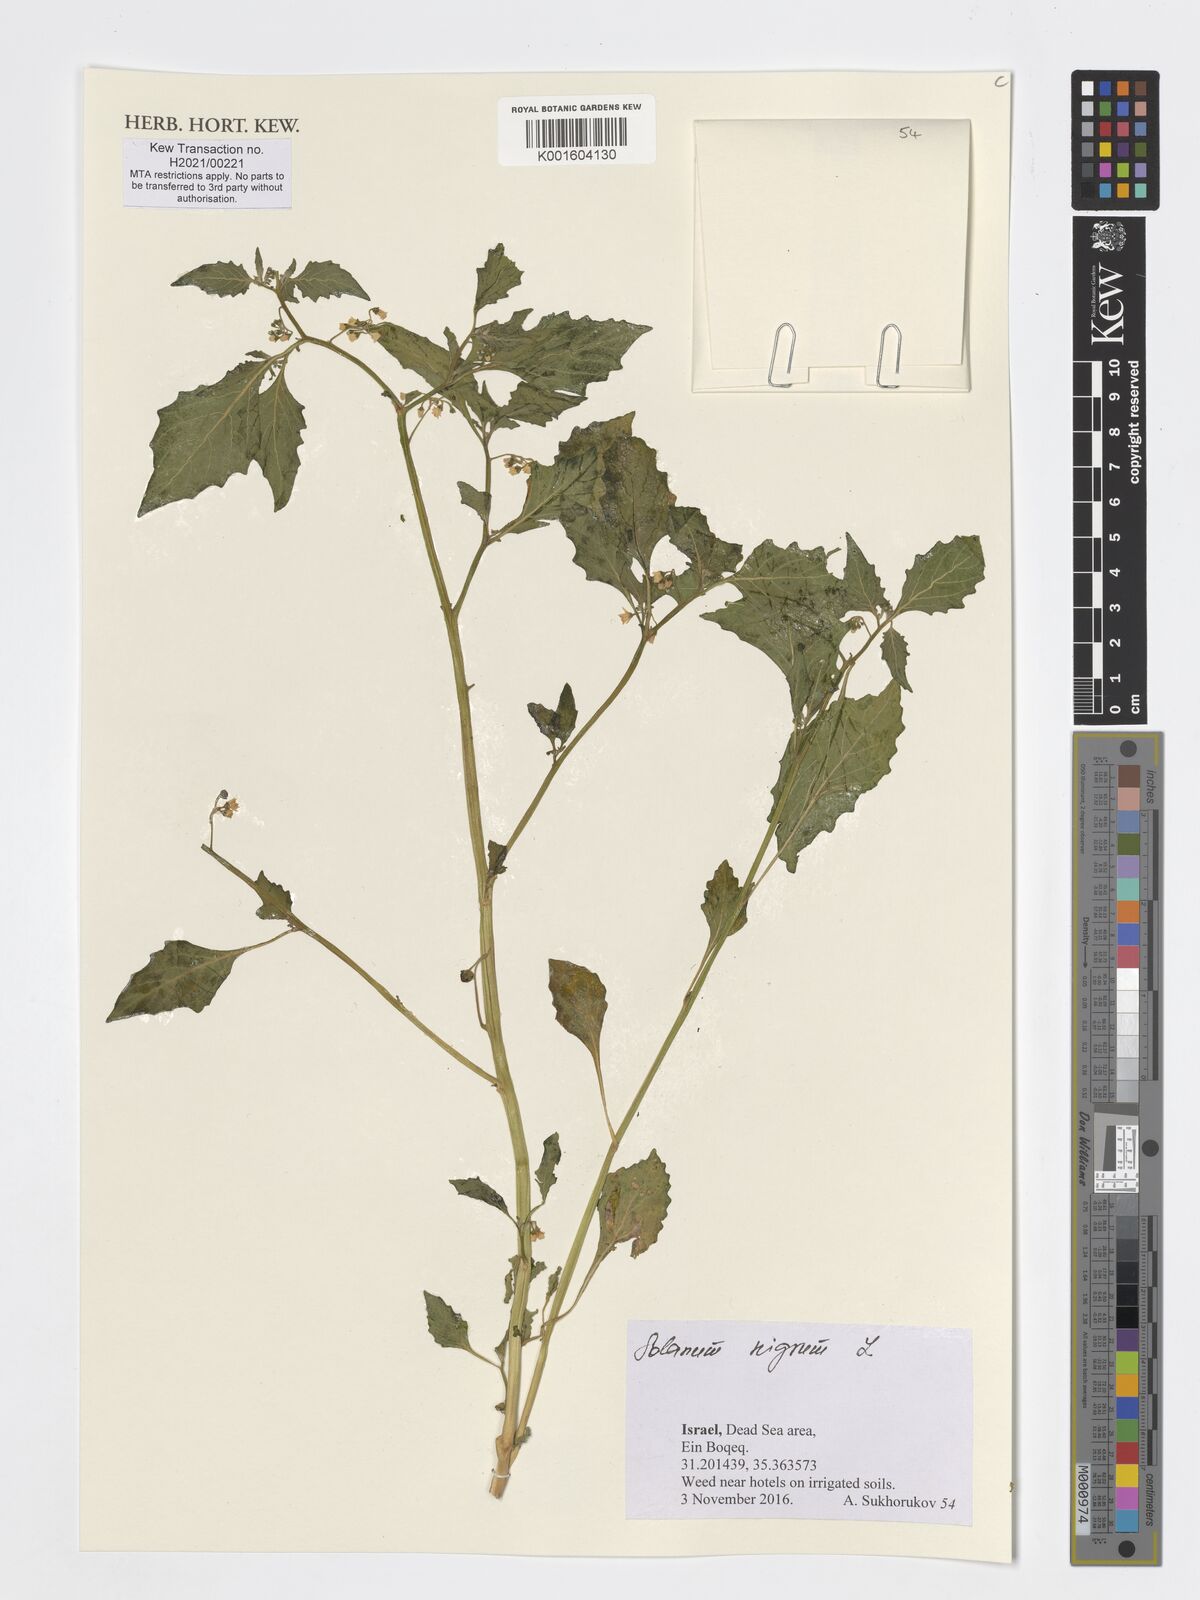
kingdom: Plantae
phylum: Tracheophyta
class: Magnoliopsida
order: Solanales
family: Solanaceae
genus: Solanum
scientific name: Solanum nigrum
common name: Black nightshade
